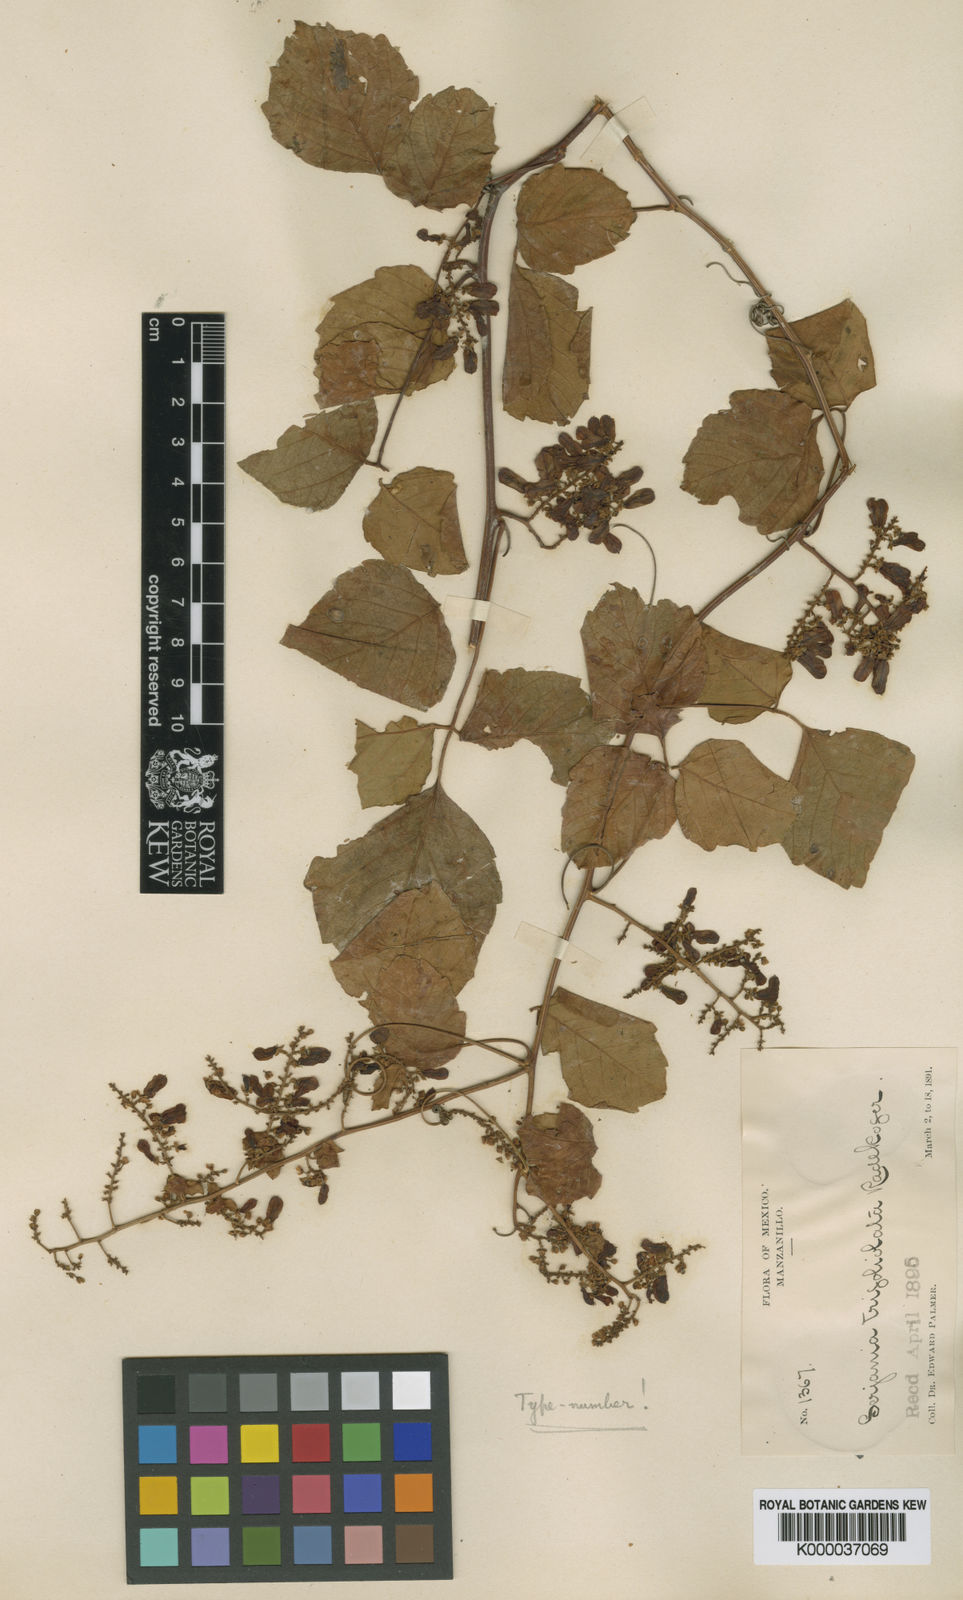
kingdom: Plantae
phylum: Tracheophyta
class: Magnoliopsida
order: Sapindales
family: Sapindaceae
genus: Serjania
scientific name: Serjania trifoliolata
